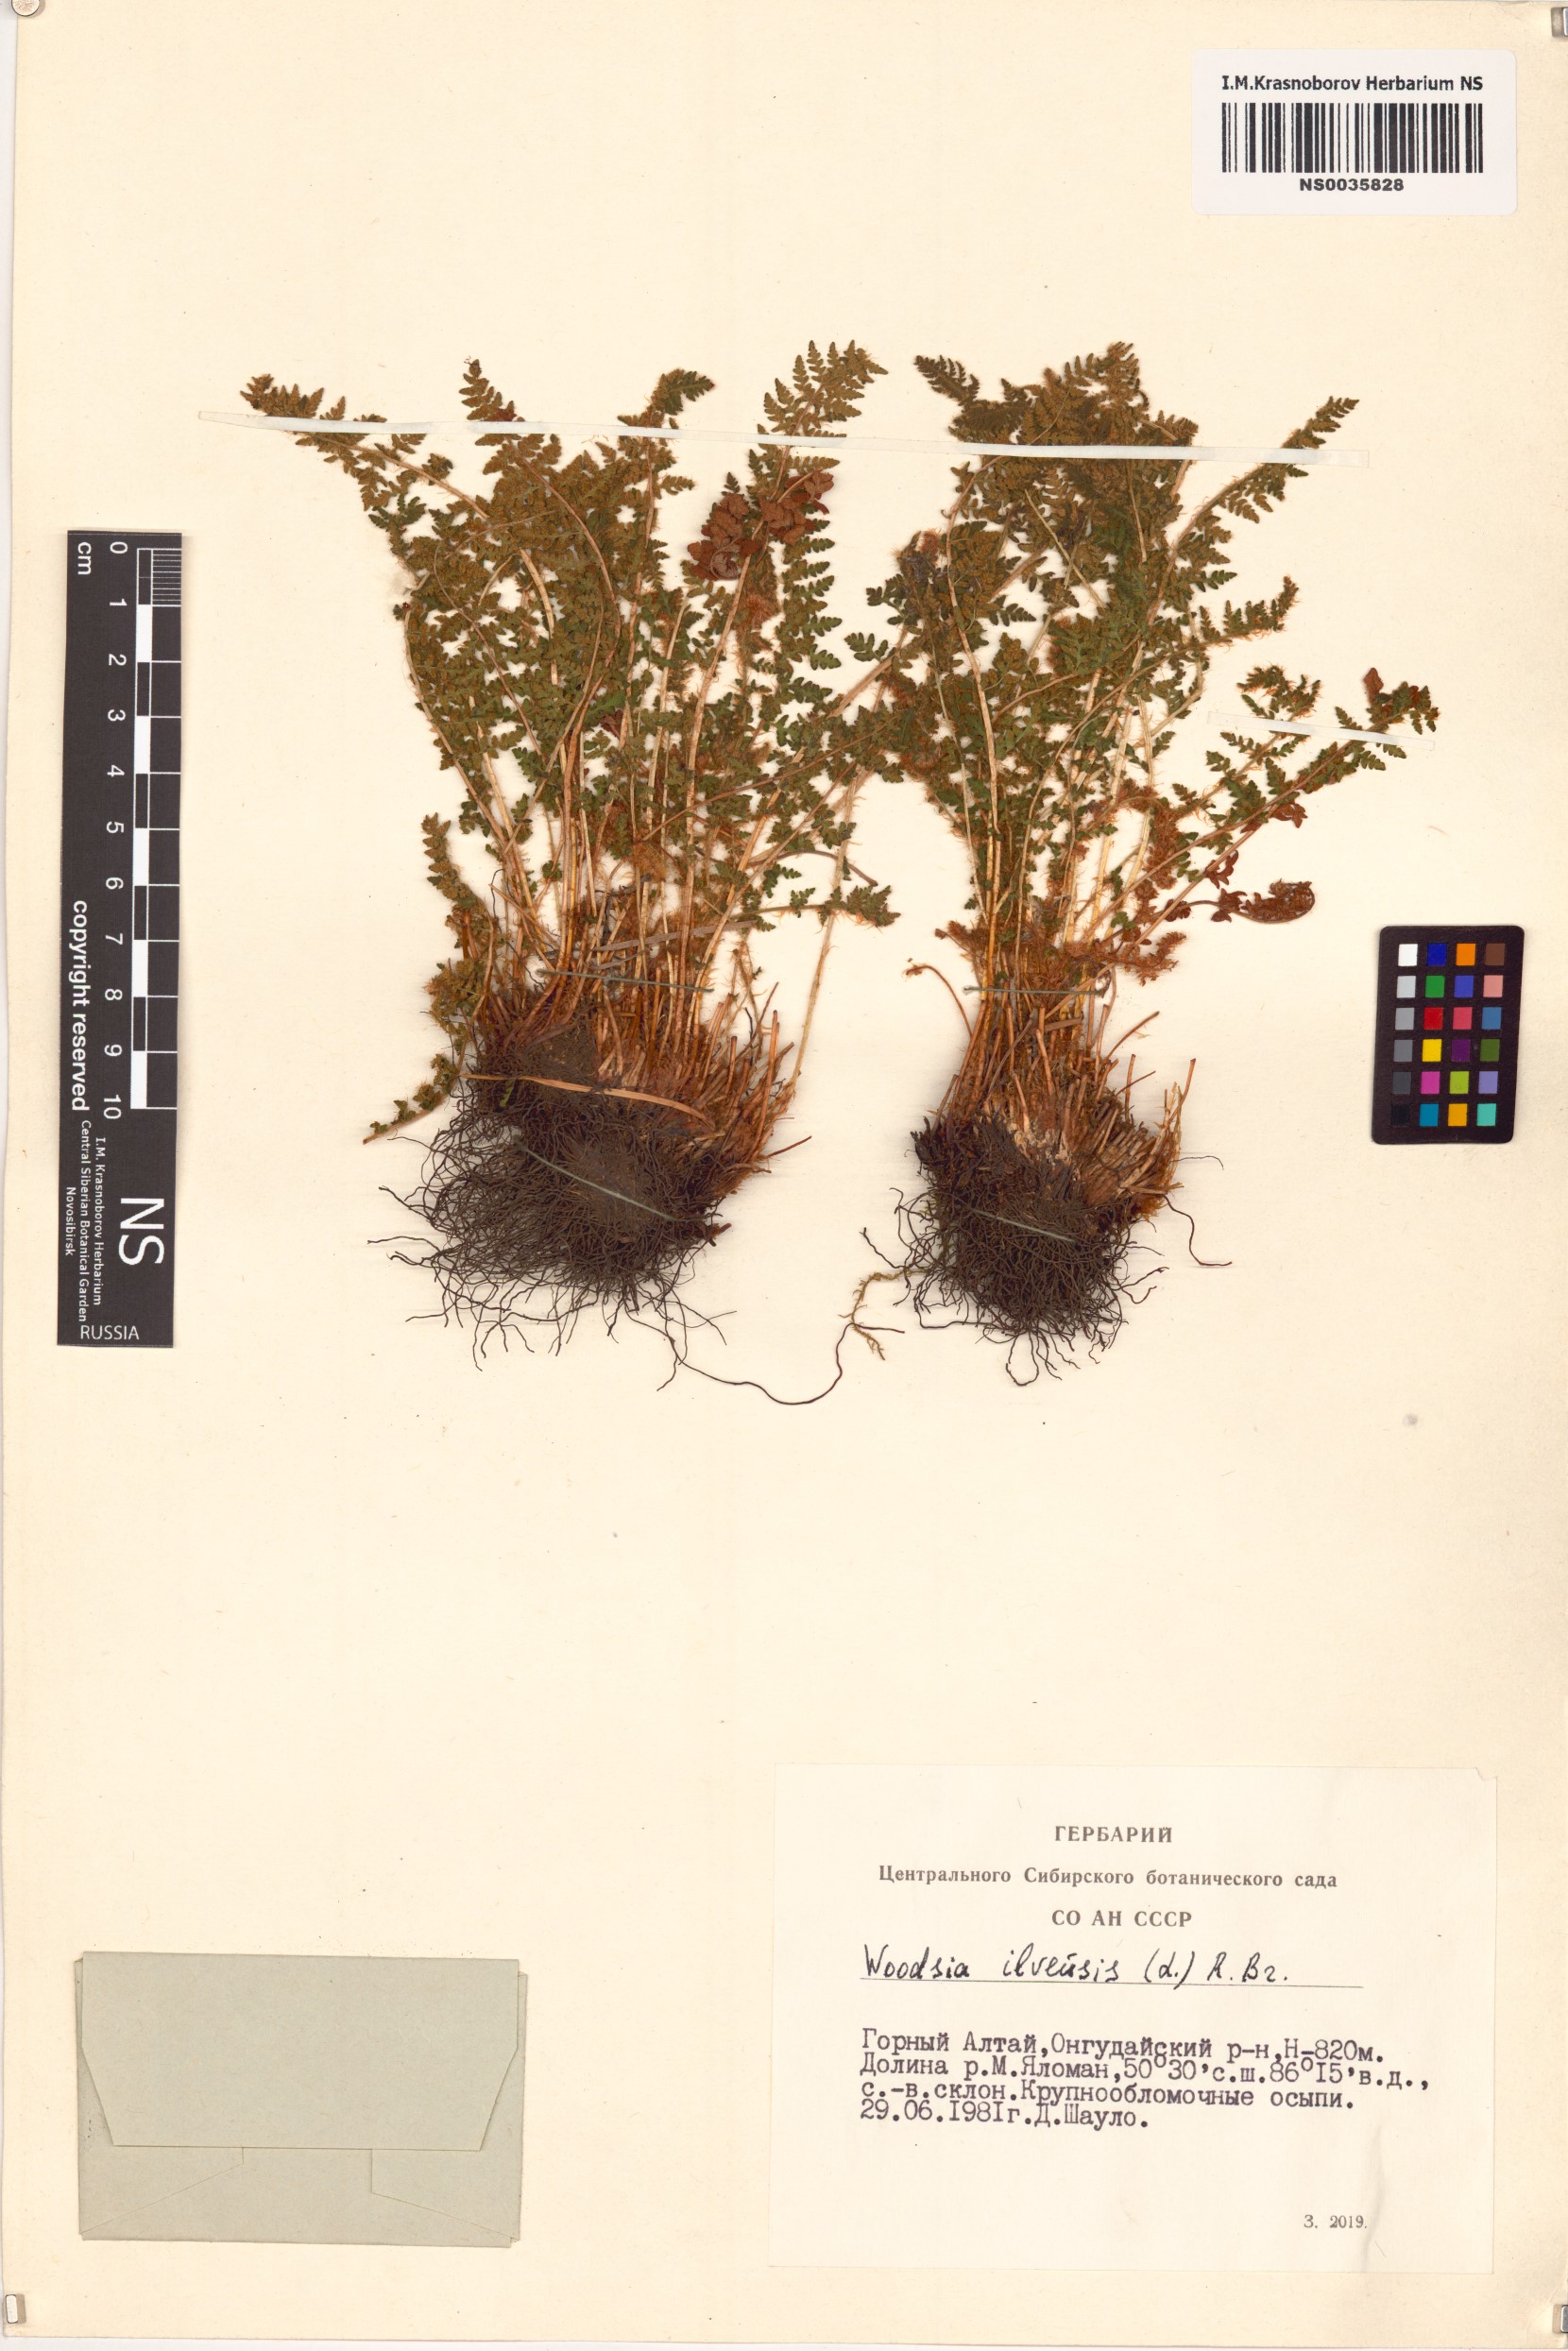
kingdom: Plantae
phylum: Tracheophyta
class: Polypodiopsida
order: Polypodiales
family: Woodsiaceae
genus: Woodsia
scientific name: Woodsia ilvensis
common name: Fragrant woodsia
